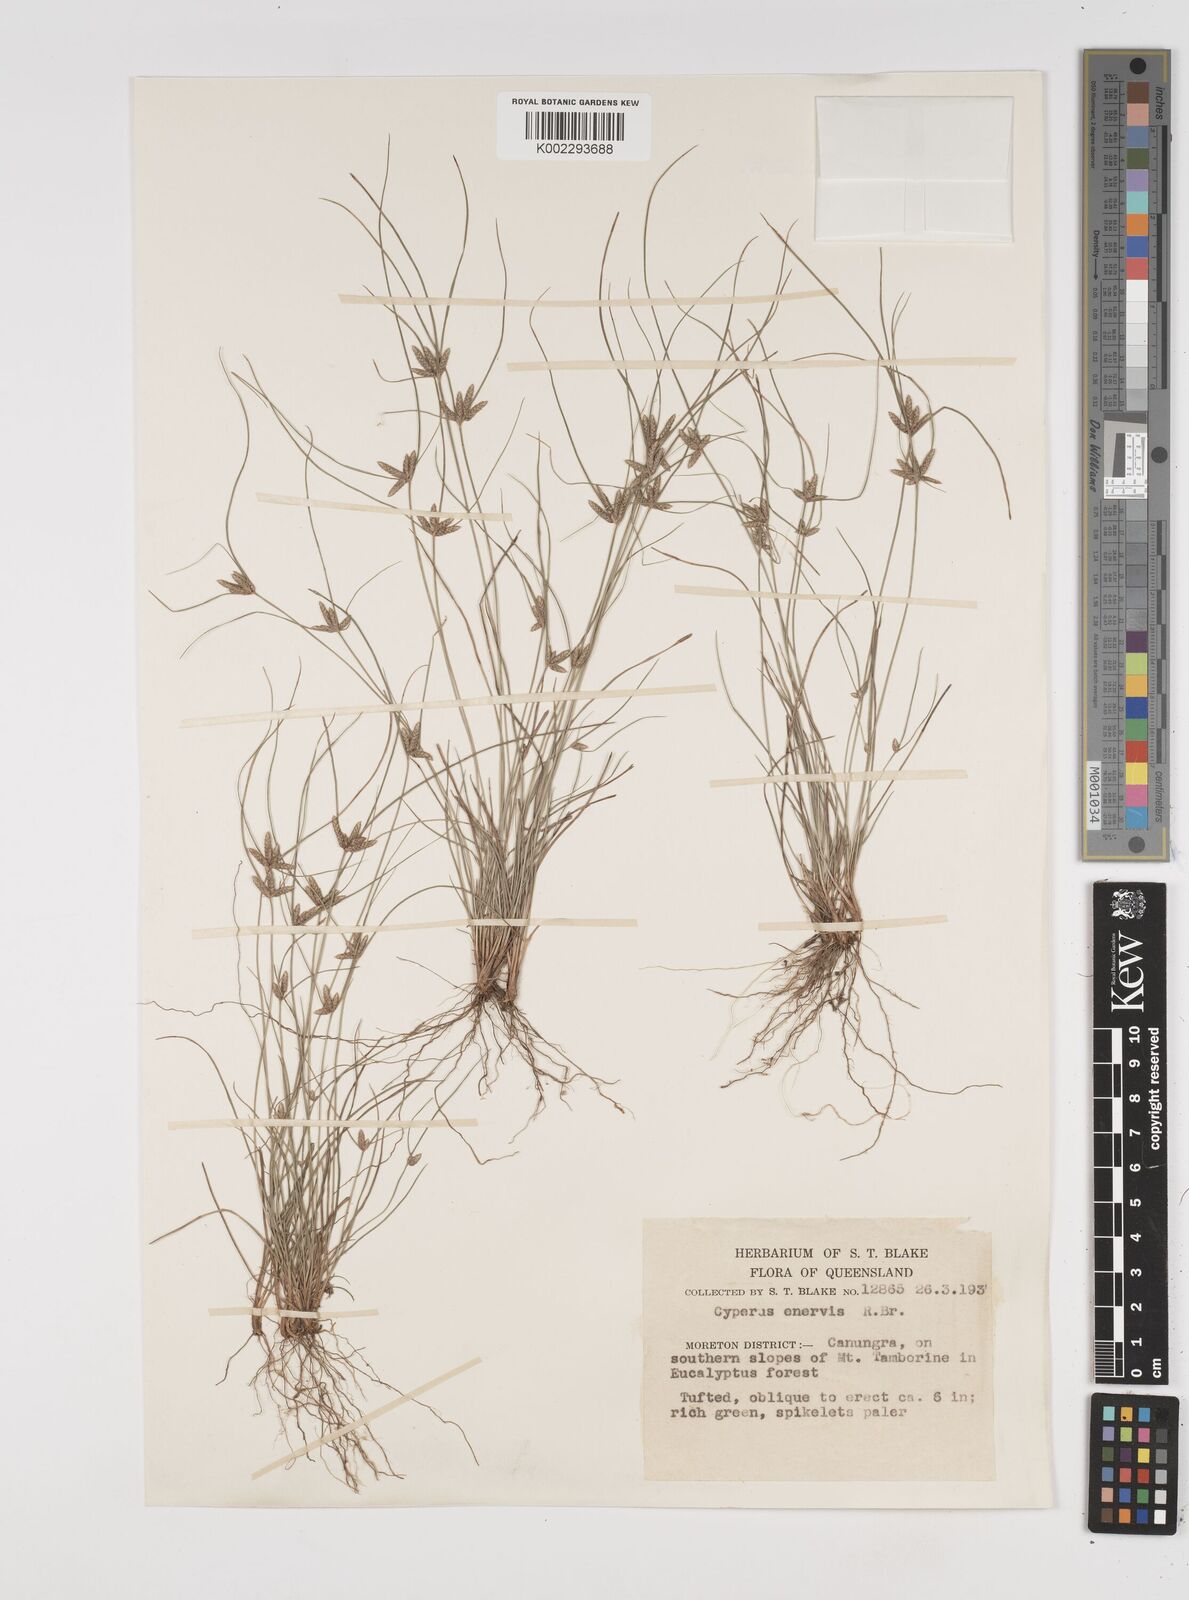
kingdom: Plantae
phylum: Tracheophyta
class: Liliopsida
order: Poales
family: Cyperaceae
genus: Cyperus
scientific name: Cyperus enervis
